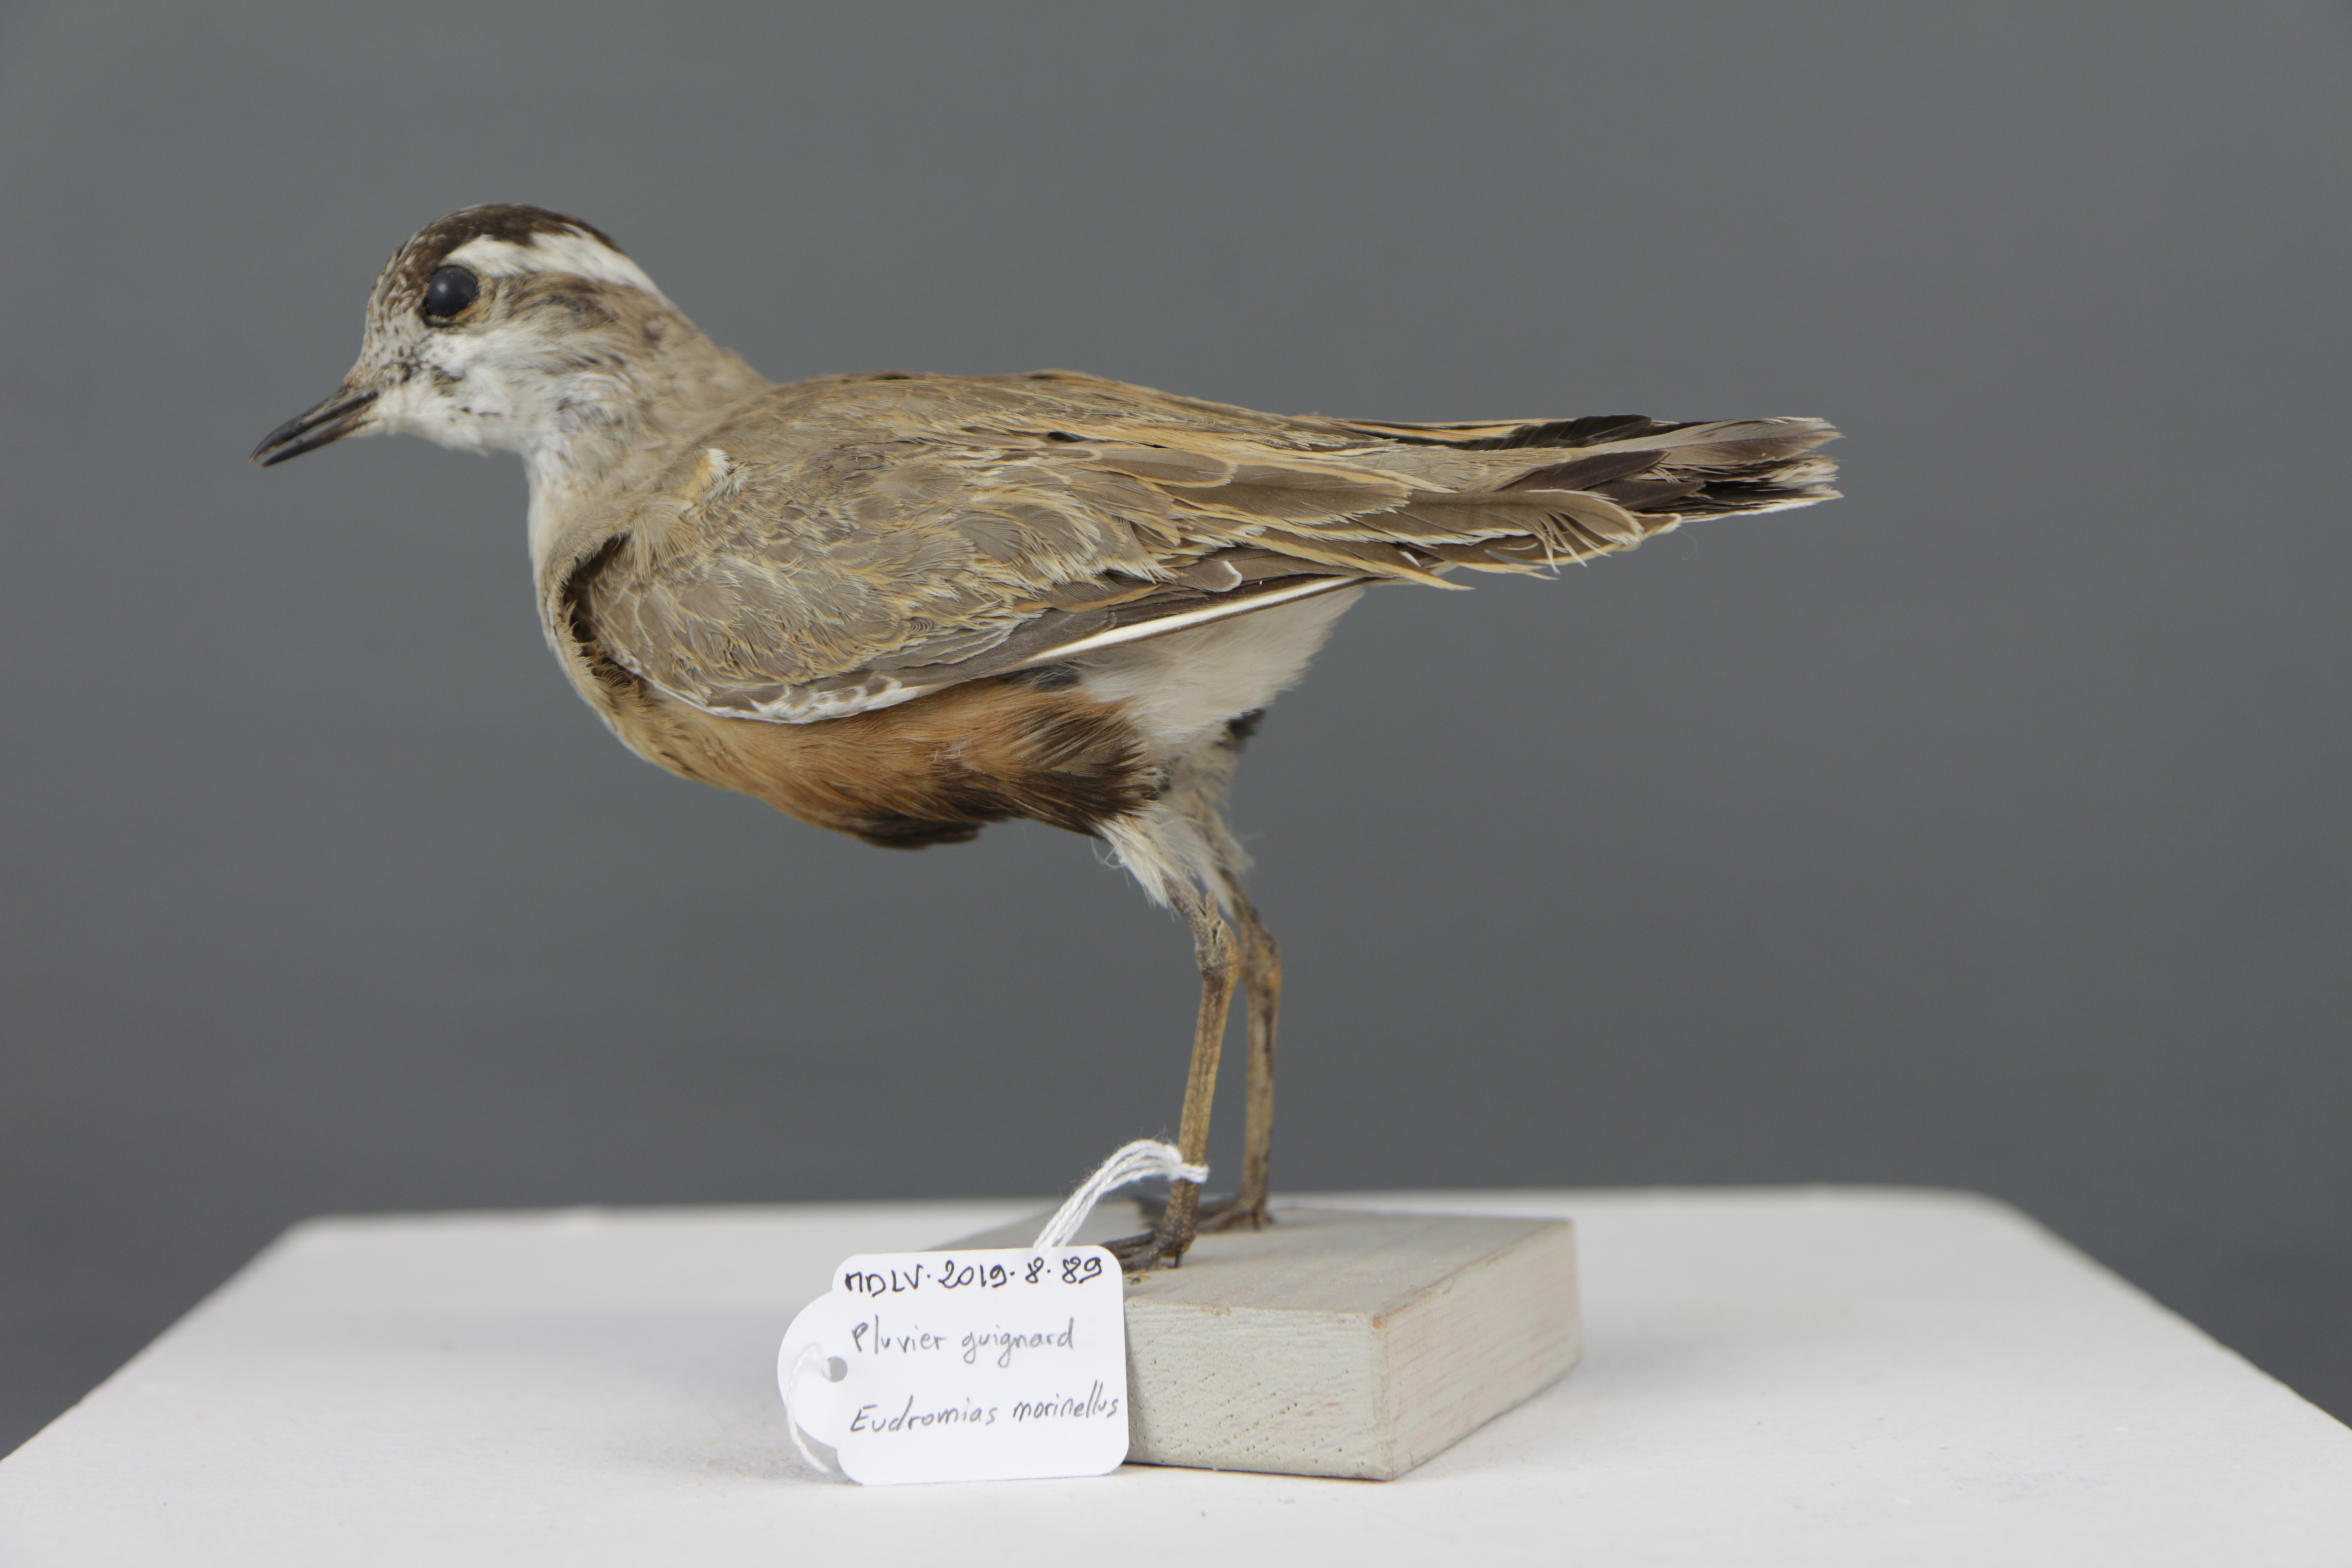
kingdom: Animalia
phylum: Chordata
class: Aves
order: Charadriiformes
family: Charadriidae
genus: Charadrius
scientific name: Charadrius morinellus
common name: Eurasian dotterel
